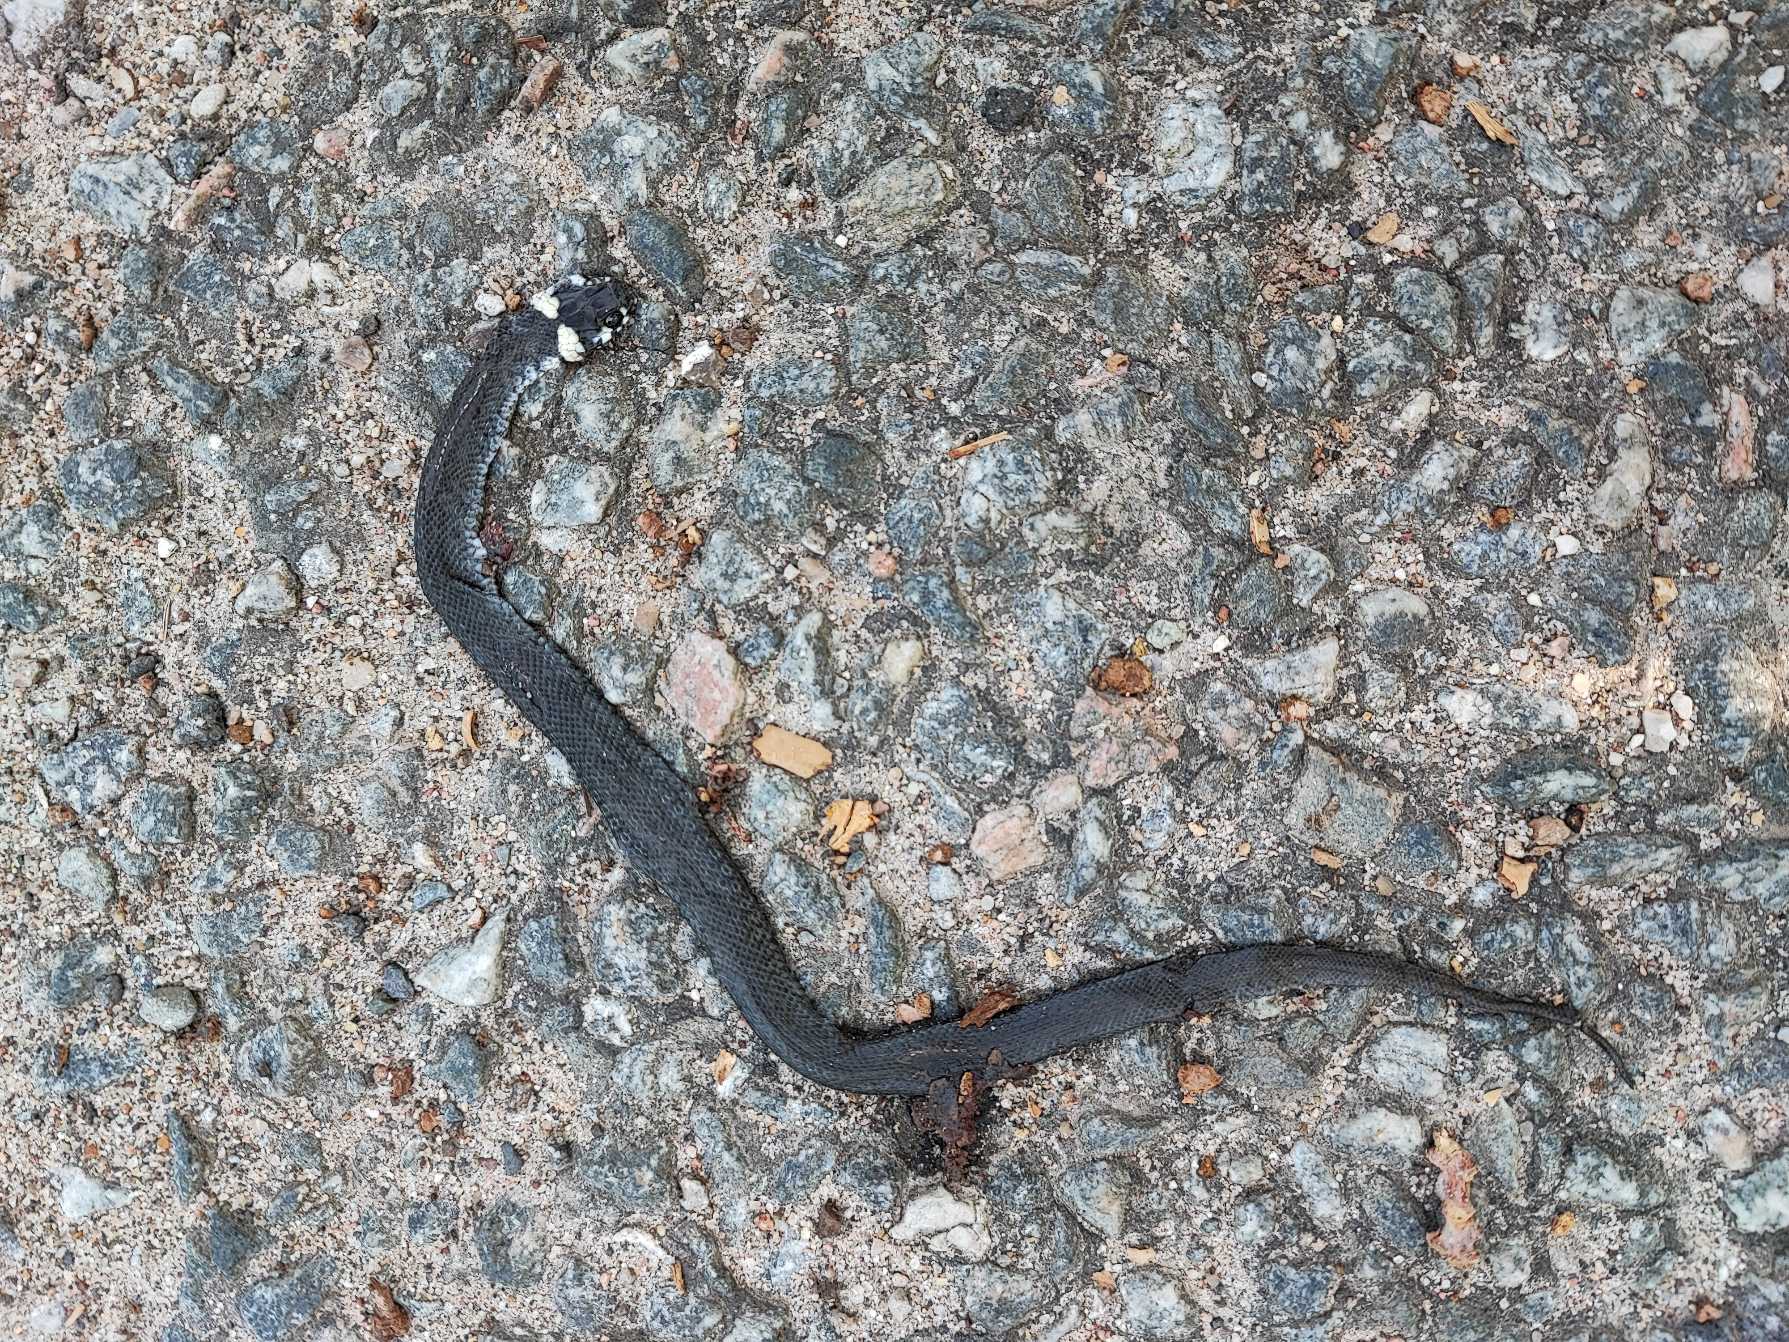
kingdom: Animalia
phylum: Chordata
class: Squamata
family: Colubridae
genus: Natrix
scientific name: Natrix natrix
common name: Snog
